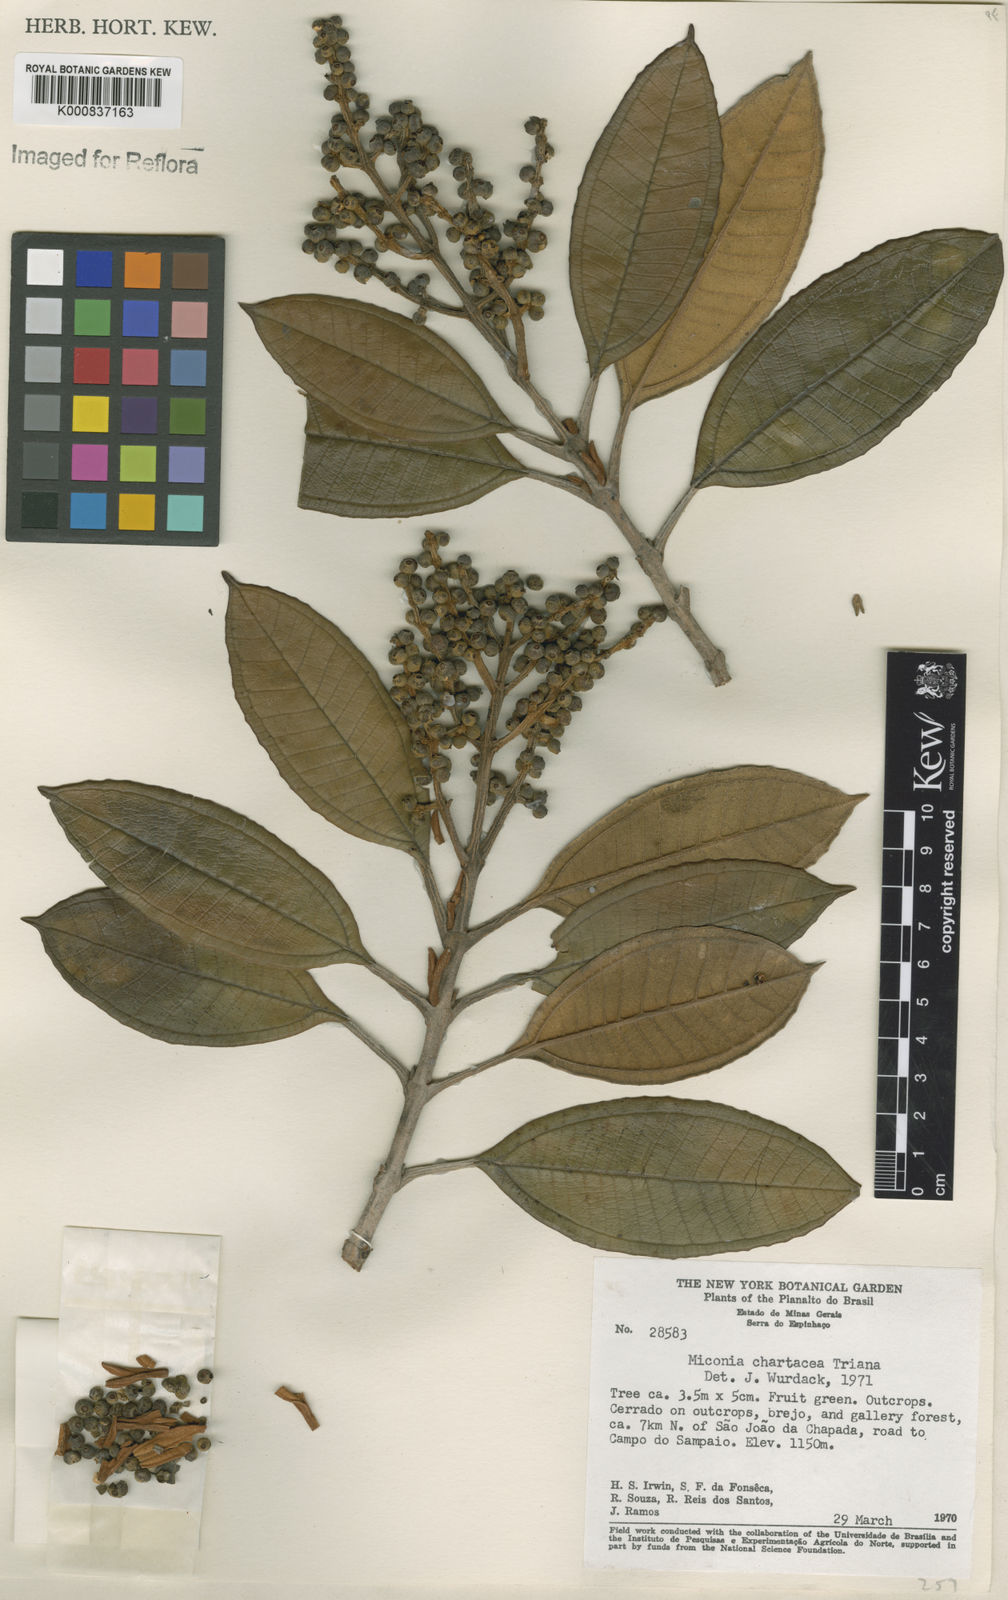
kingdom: Plantae
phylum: Tracheophyta
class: Magnoliopsida
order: Myrtales
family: Melastomataceae
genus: Miconia
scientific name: Miconia chartacea
